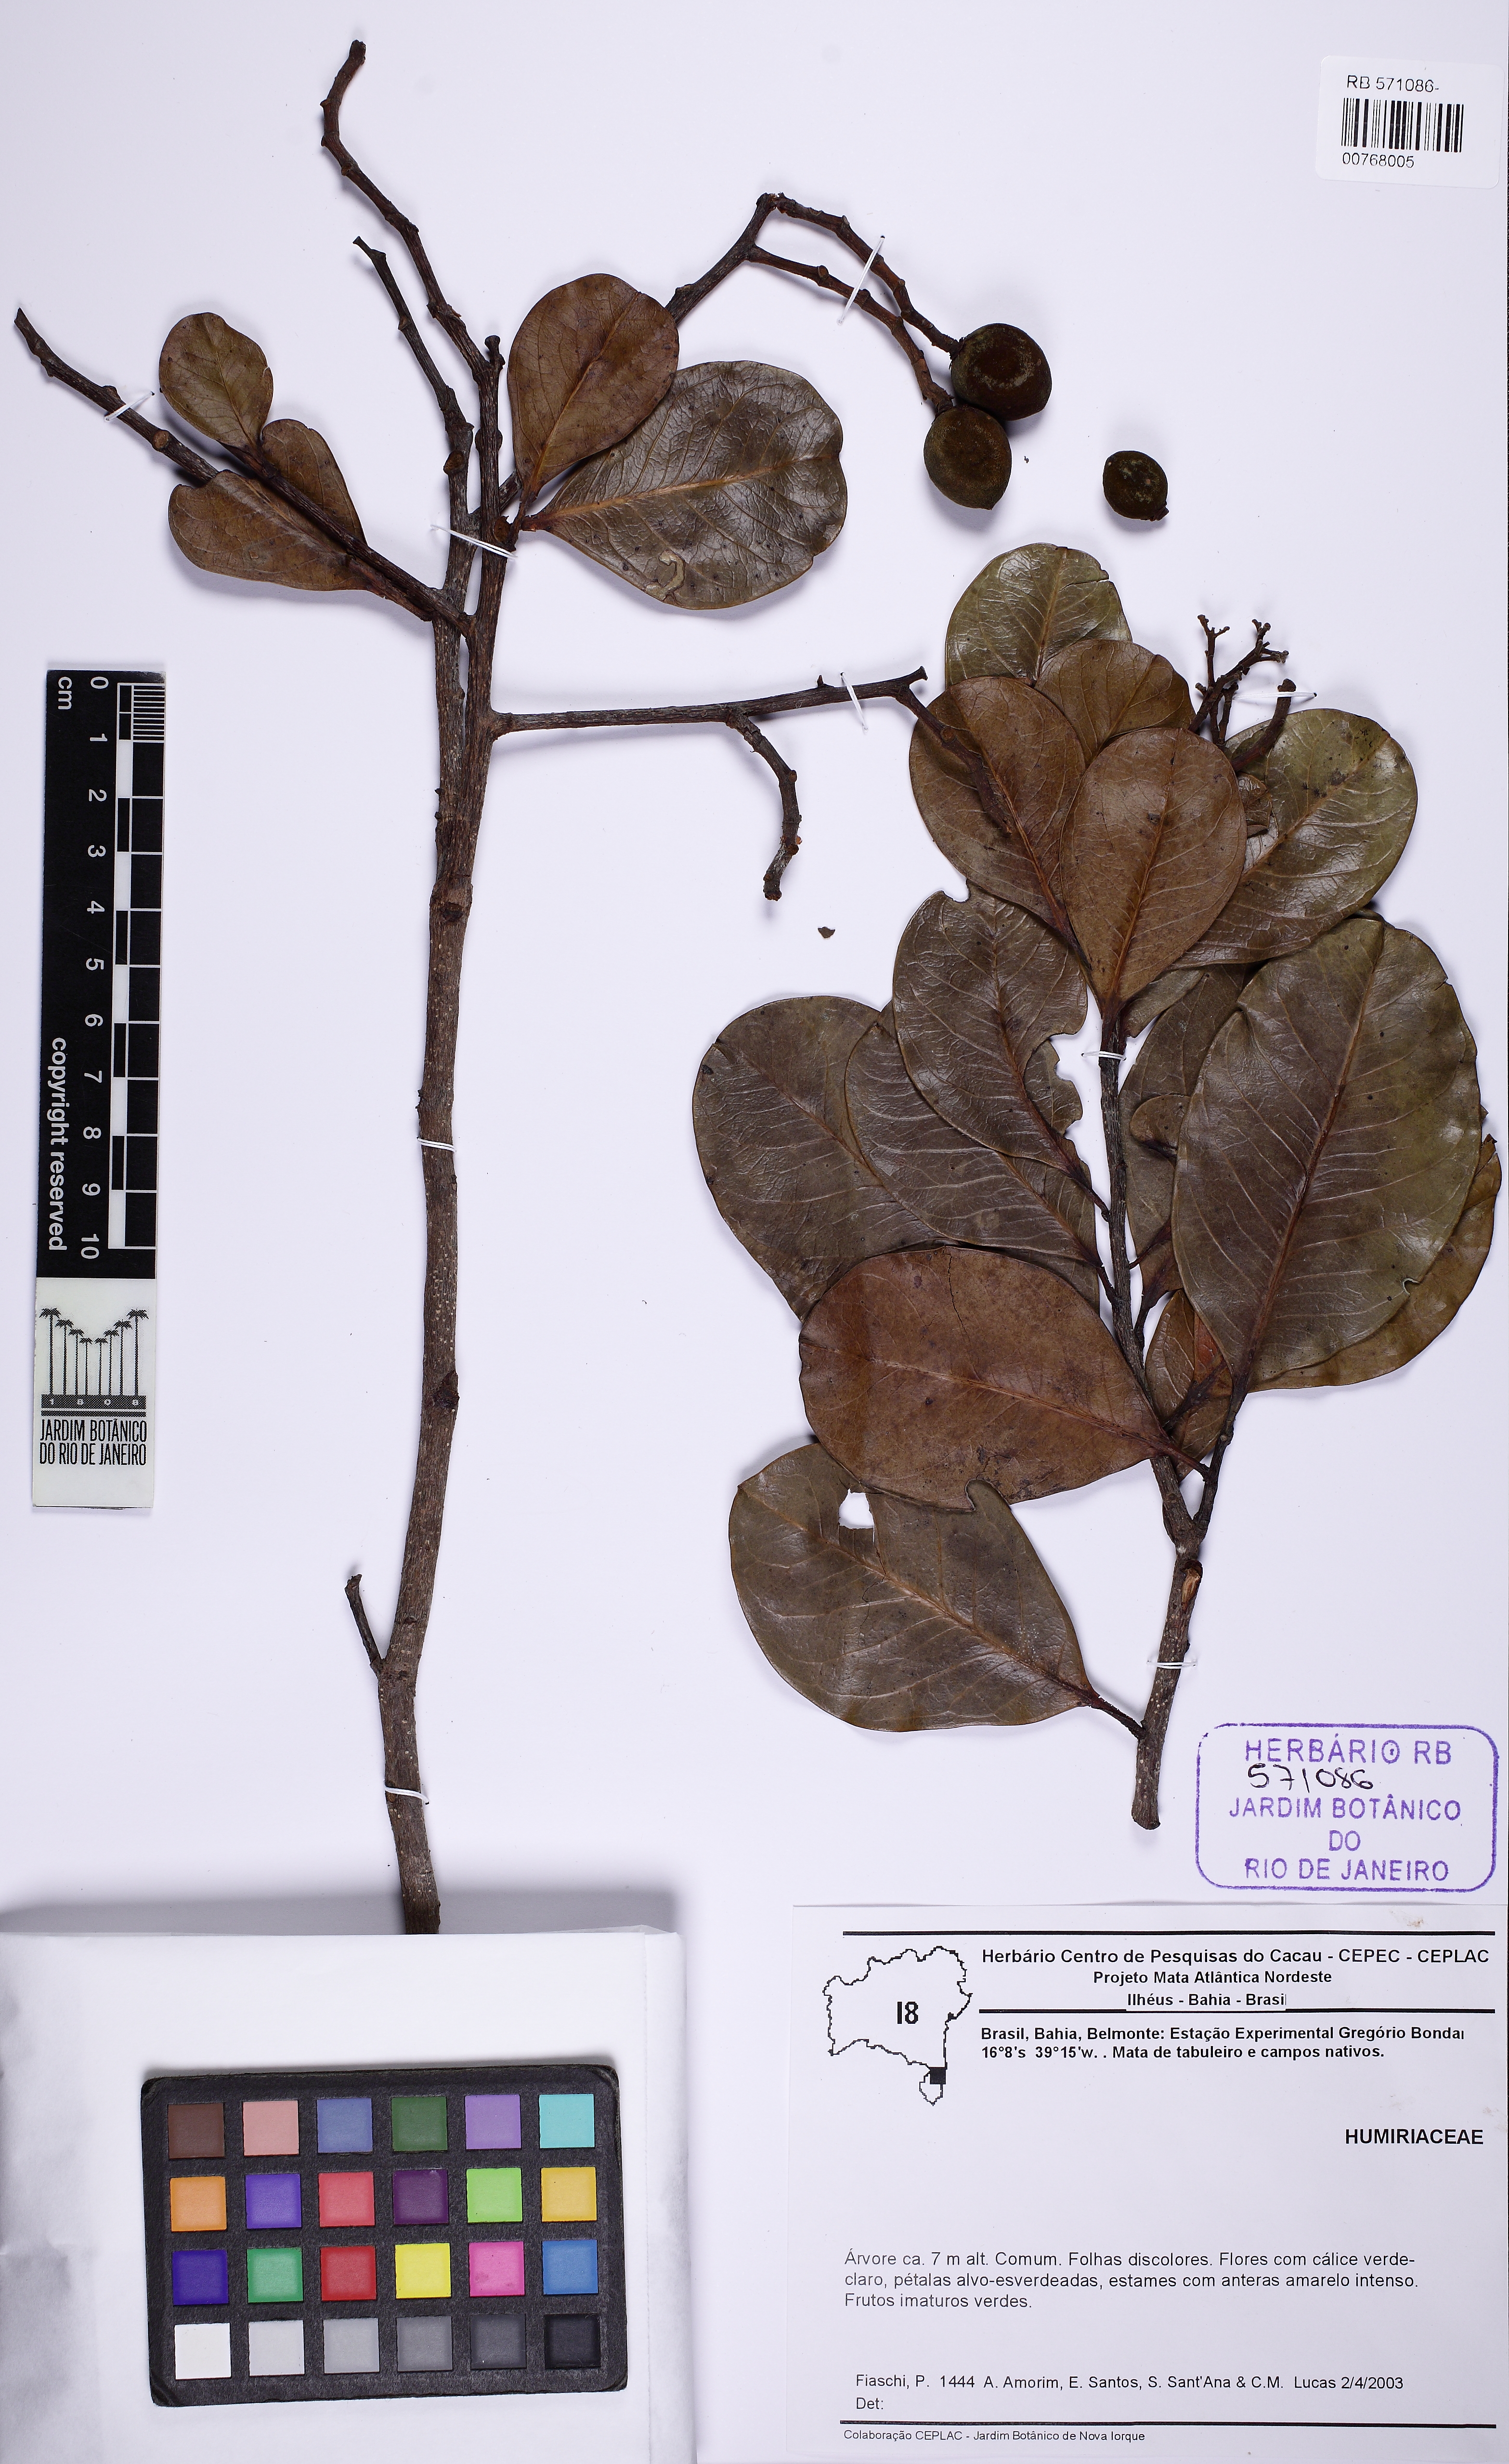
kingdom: Plantae
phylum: Tracheophyta
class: Magnoliopsida
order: Malpighiales
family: Humiriaceae
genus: Vantanea
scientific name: Vantanea obovata
